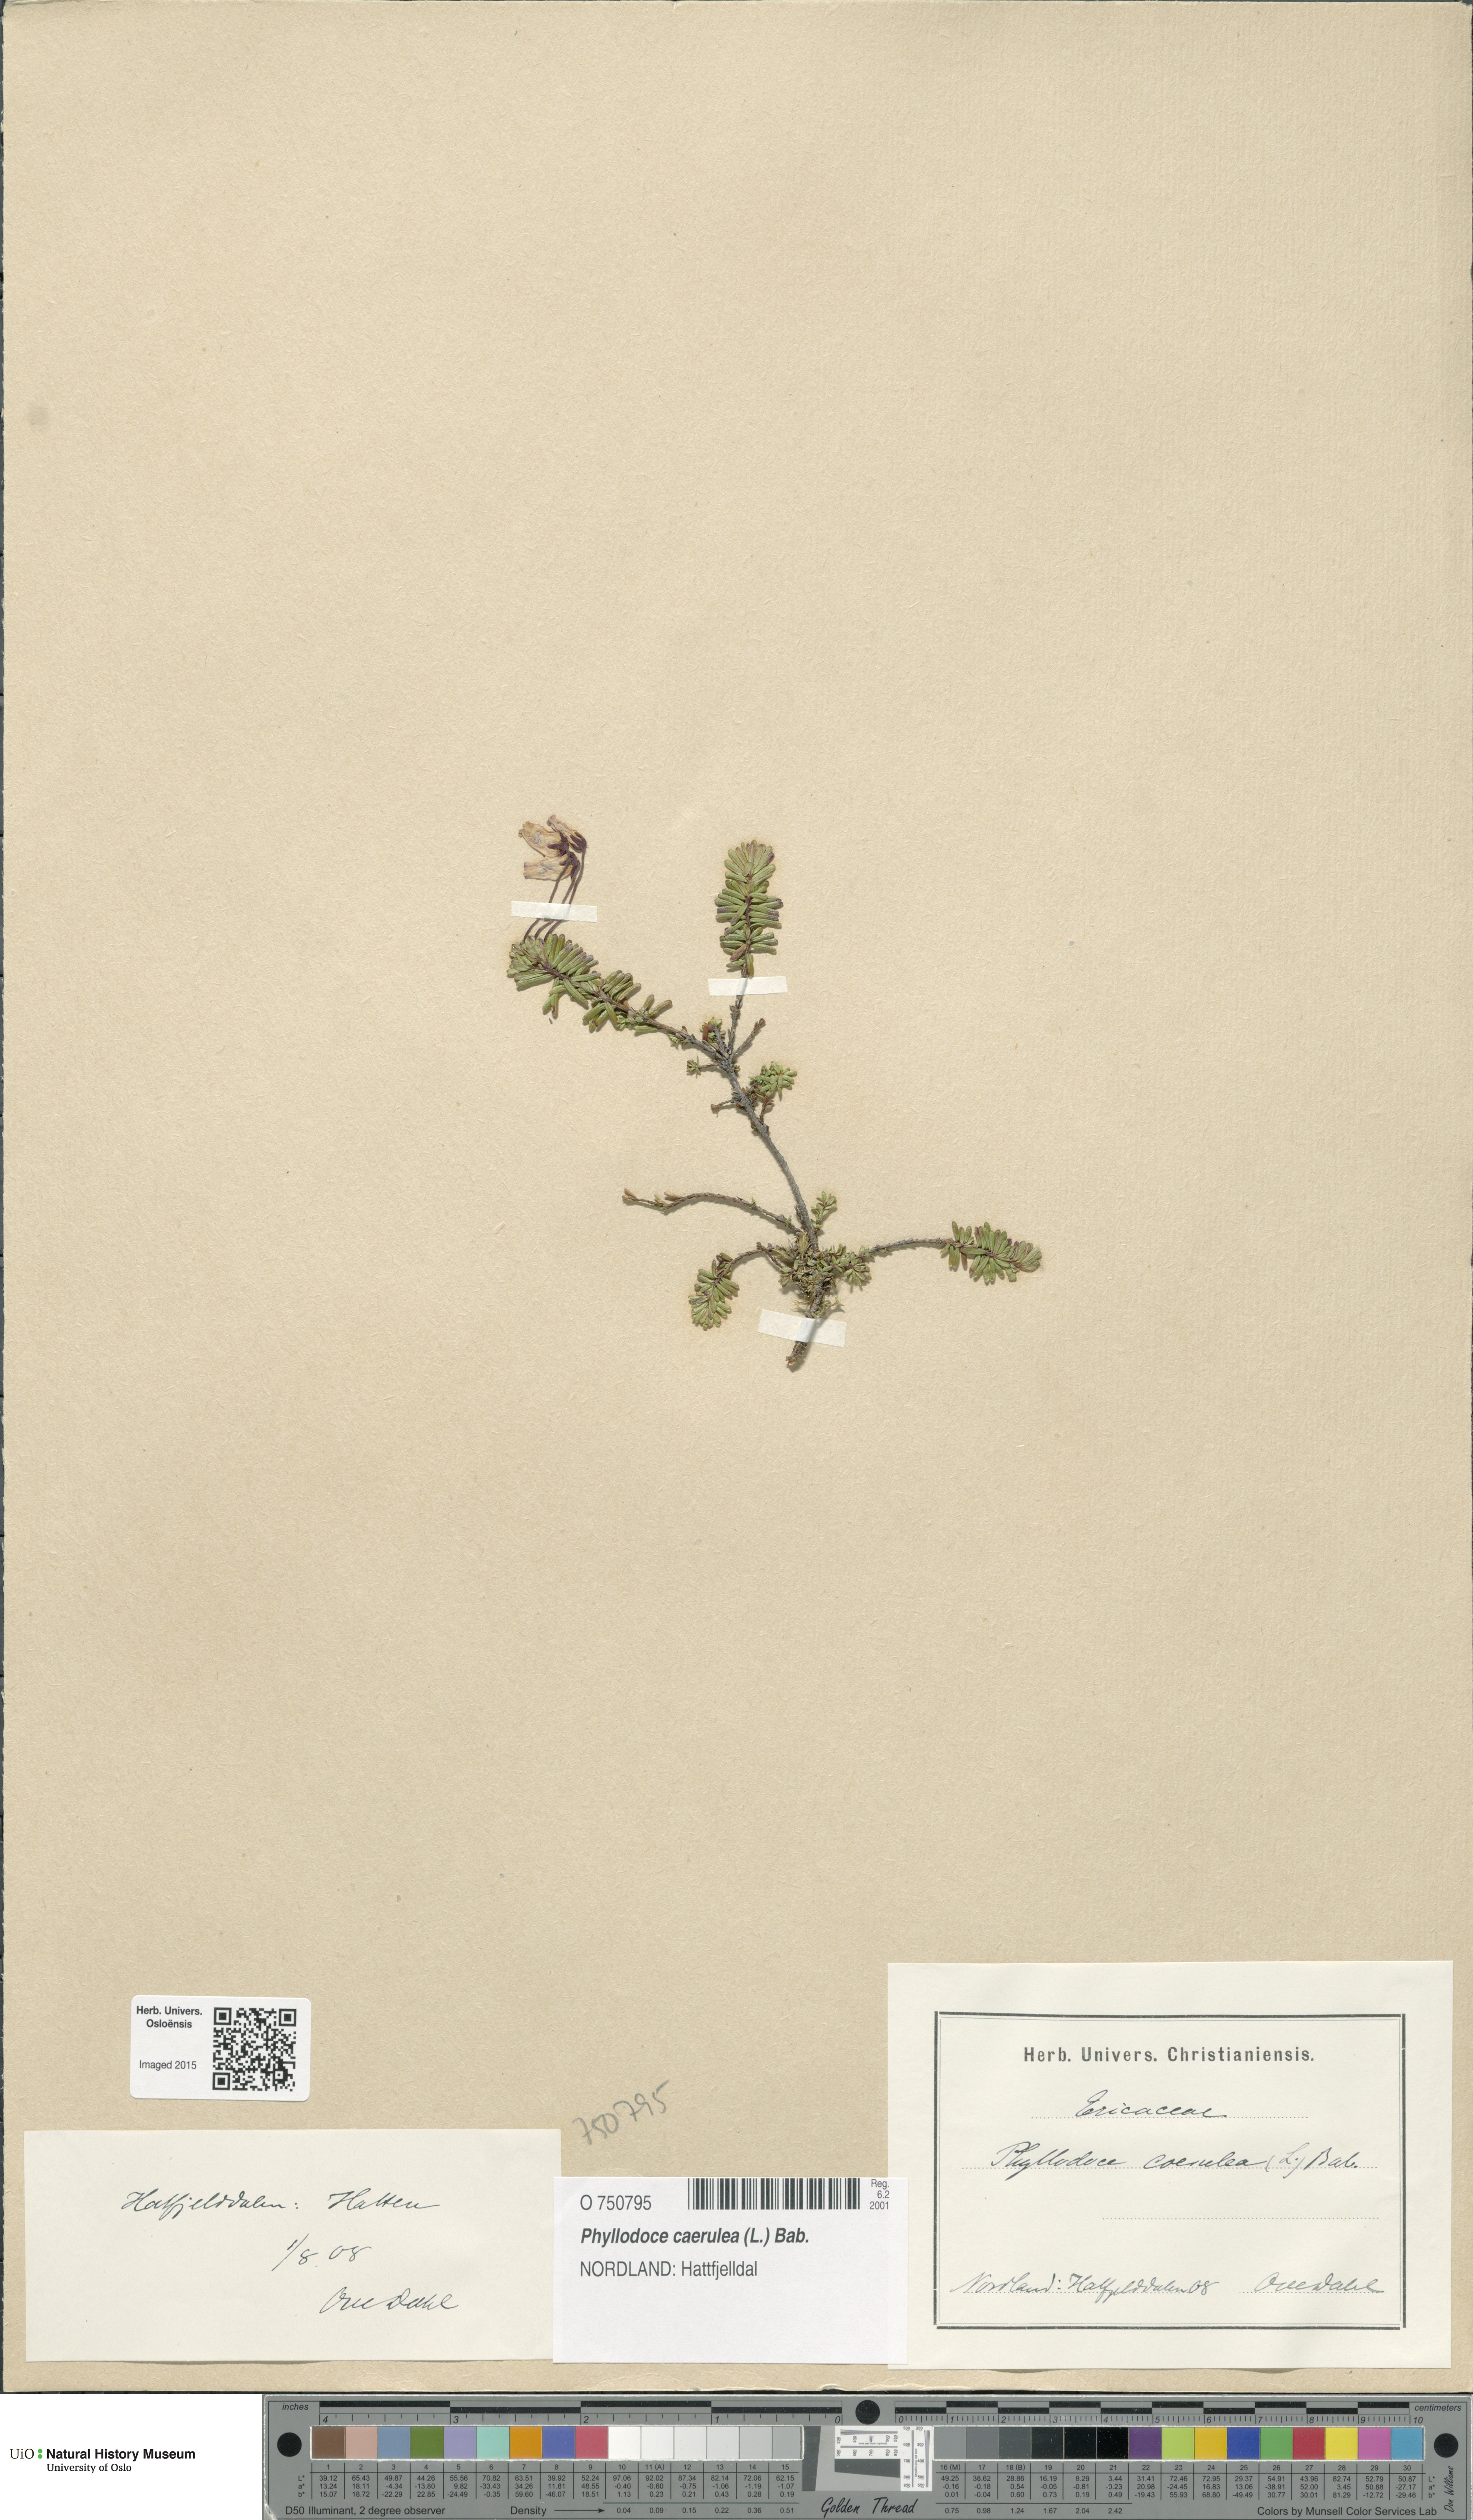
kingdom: Plantae
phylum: Tracheophyta
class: Magnoliopsida
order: Ericales
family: Ericaceae
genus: Phyllodoce
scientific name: Phyllodoce caerulea
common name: Blue heath
